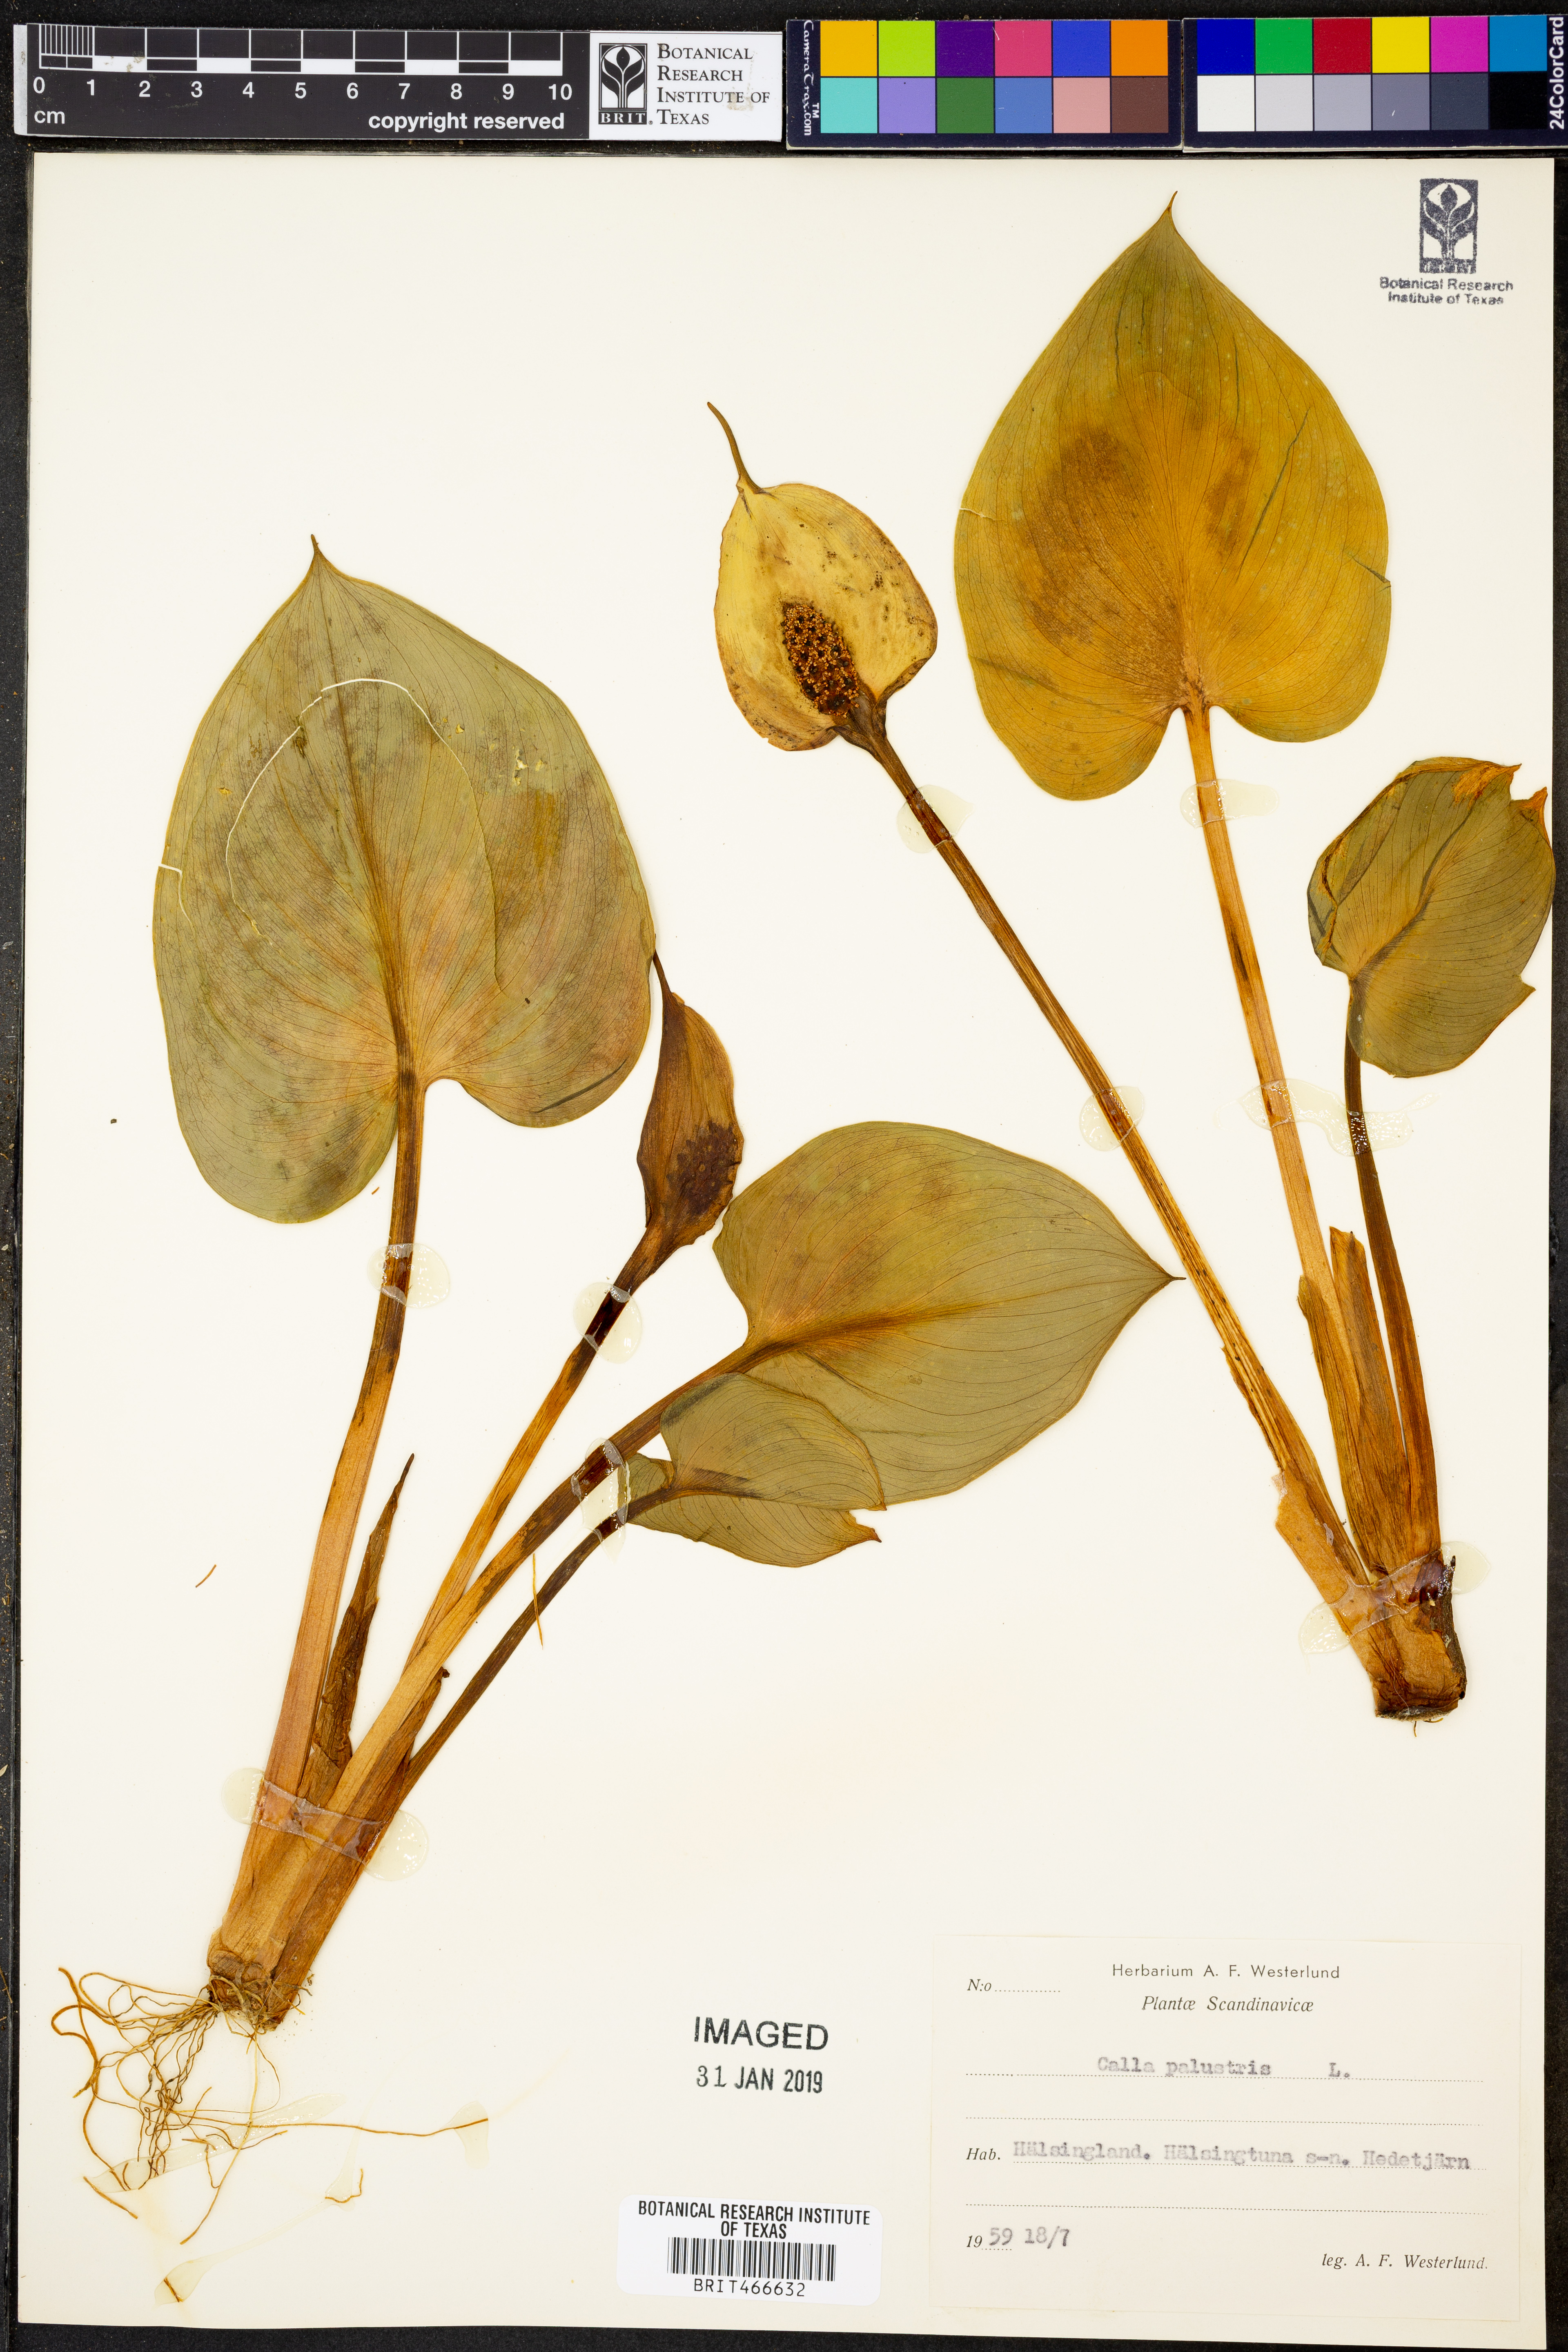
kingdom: Plantae
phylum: Tracheophyta
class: Liliopsida
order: Alismatales
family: Araceae
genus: Calla
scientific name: Calla palustris
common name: Bog arum
